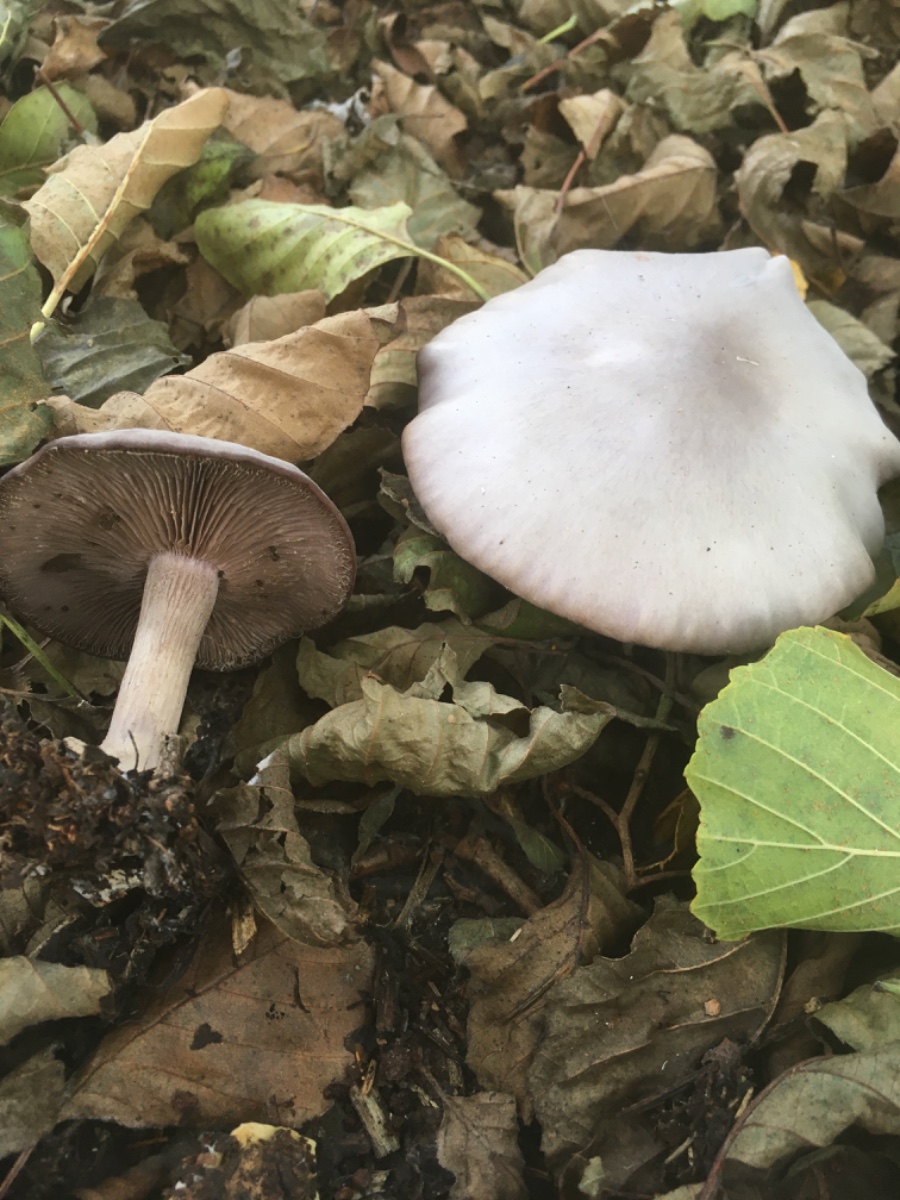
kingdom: Fungi
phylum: Basidiomycota
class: Agaricomycetes
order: Agaricales
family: Tricholomataceae
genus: Lepista
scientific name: Lepista
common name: hekseringshat
